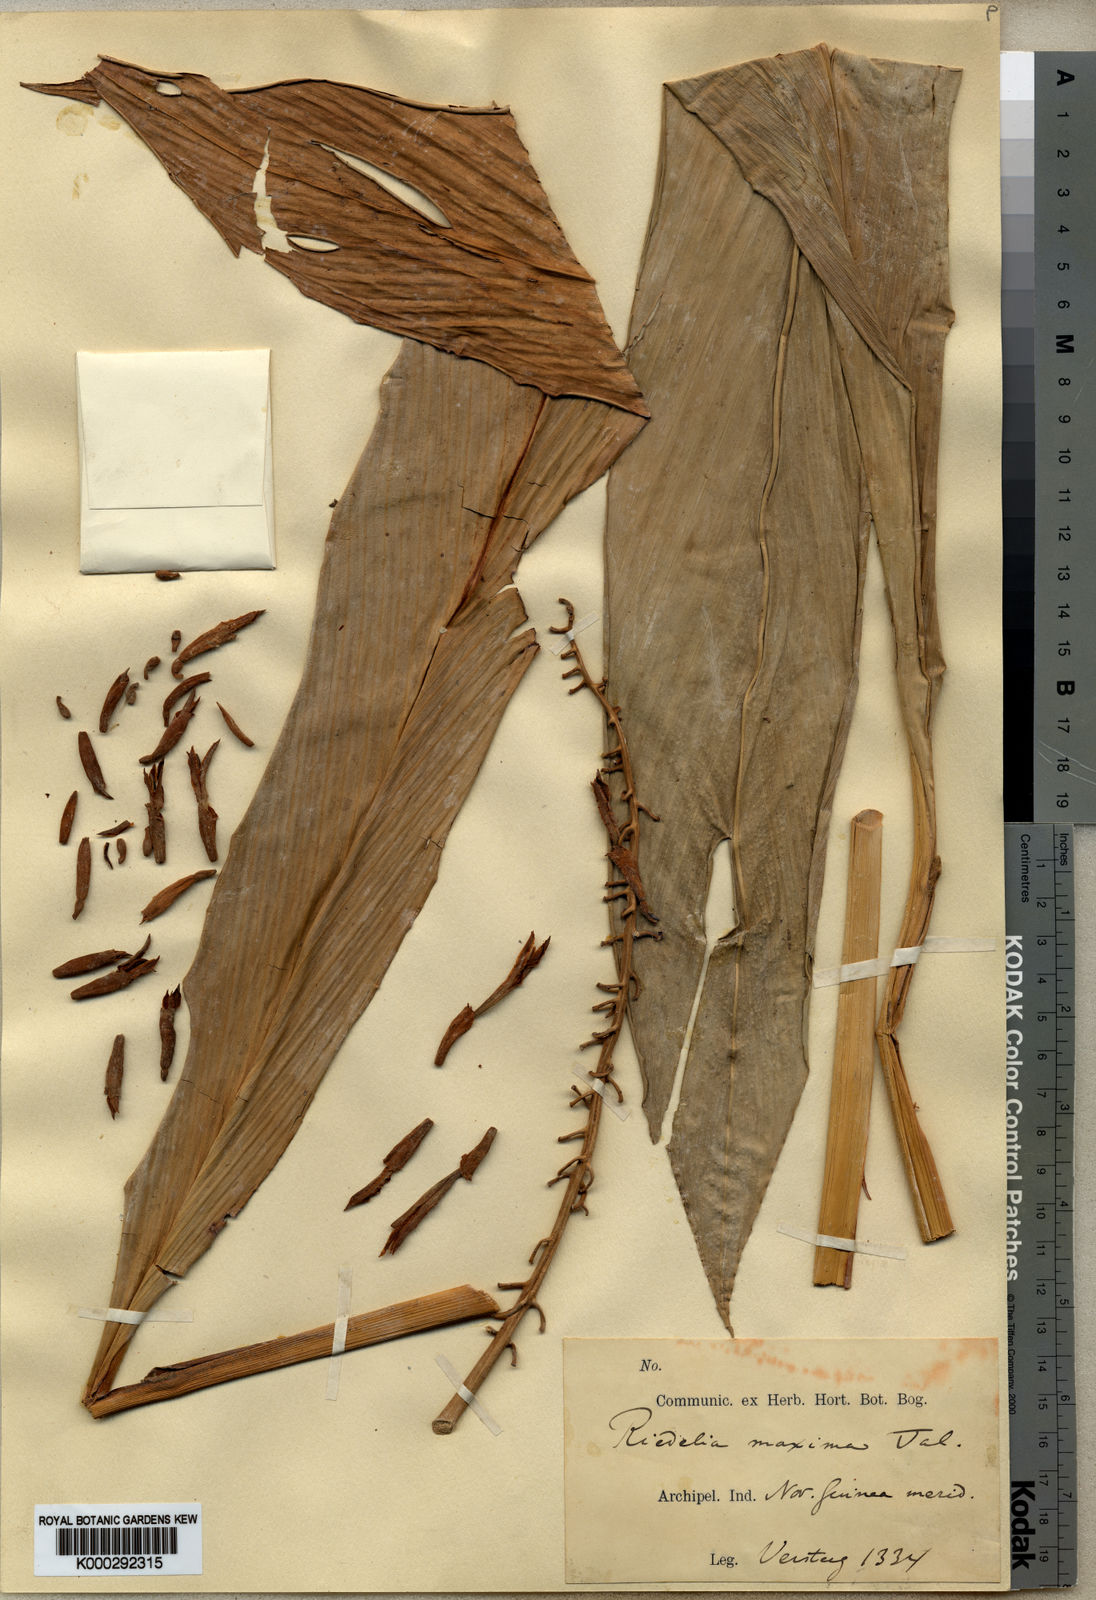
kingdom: Plantae
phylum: Tracheophyta
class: Liliopsida
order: Zingiberales
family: Zingiberaceae
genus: Riedelia
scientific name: Riedelia maxima
